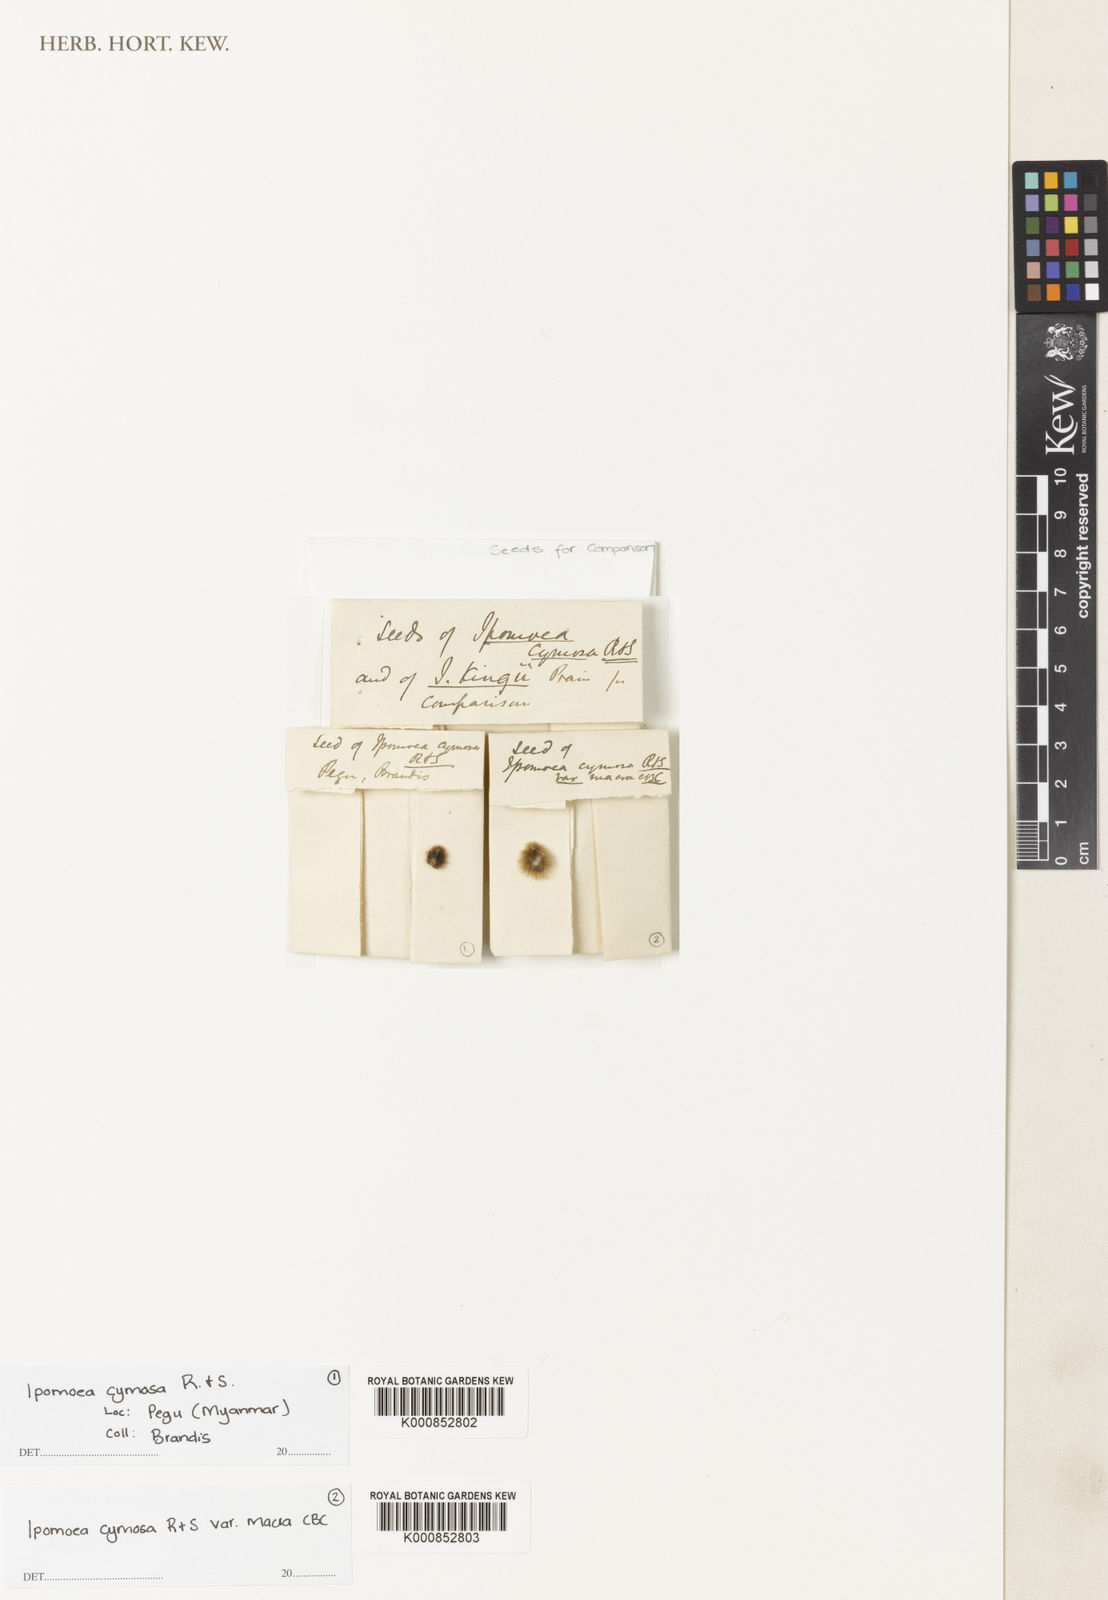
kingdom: Plantae
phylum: Tracheophyta
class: Magnoliopsida
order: Solanales
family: Convolvulaceae
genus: Camonea
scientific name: Camonea kingii
